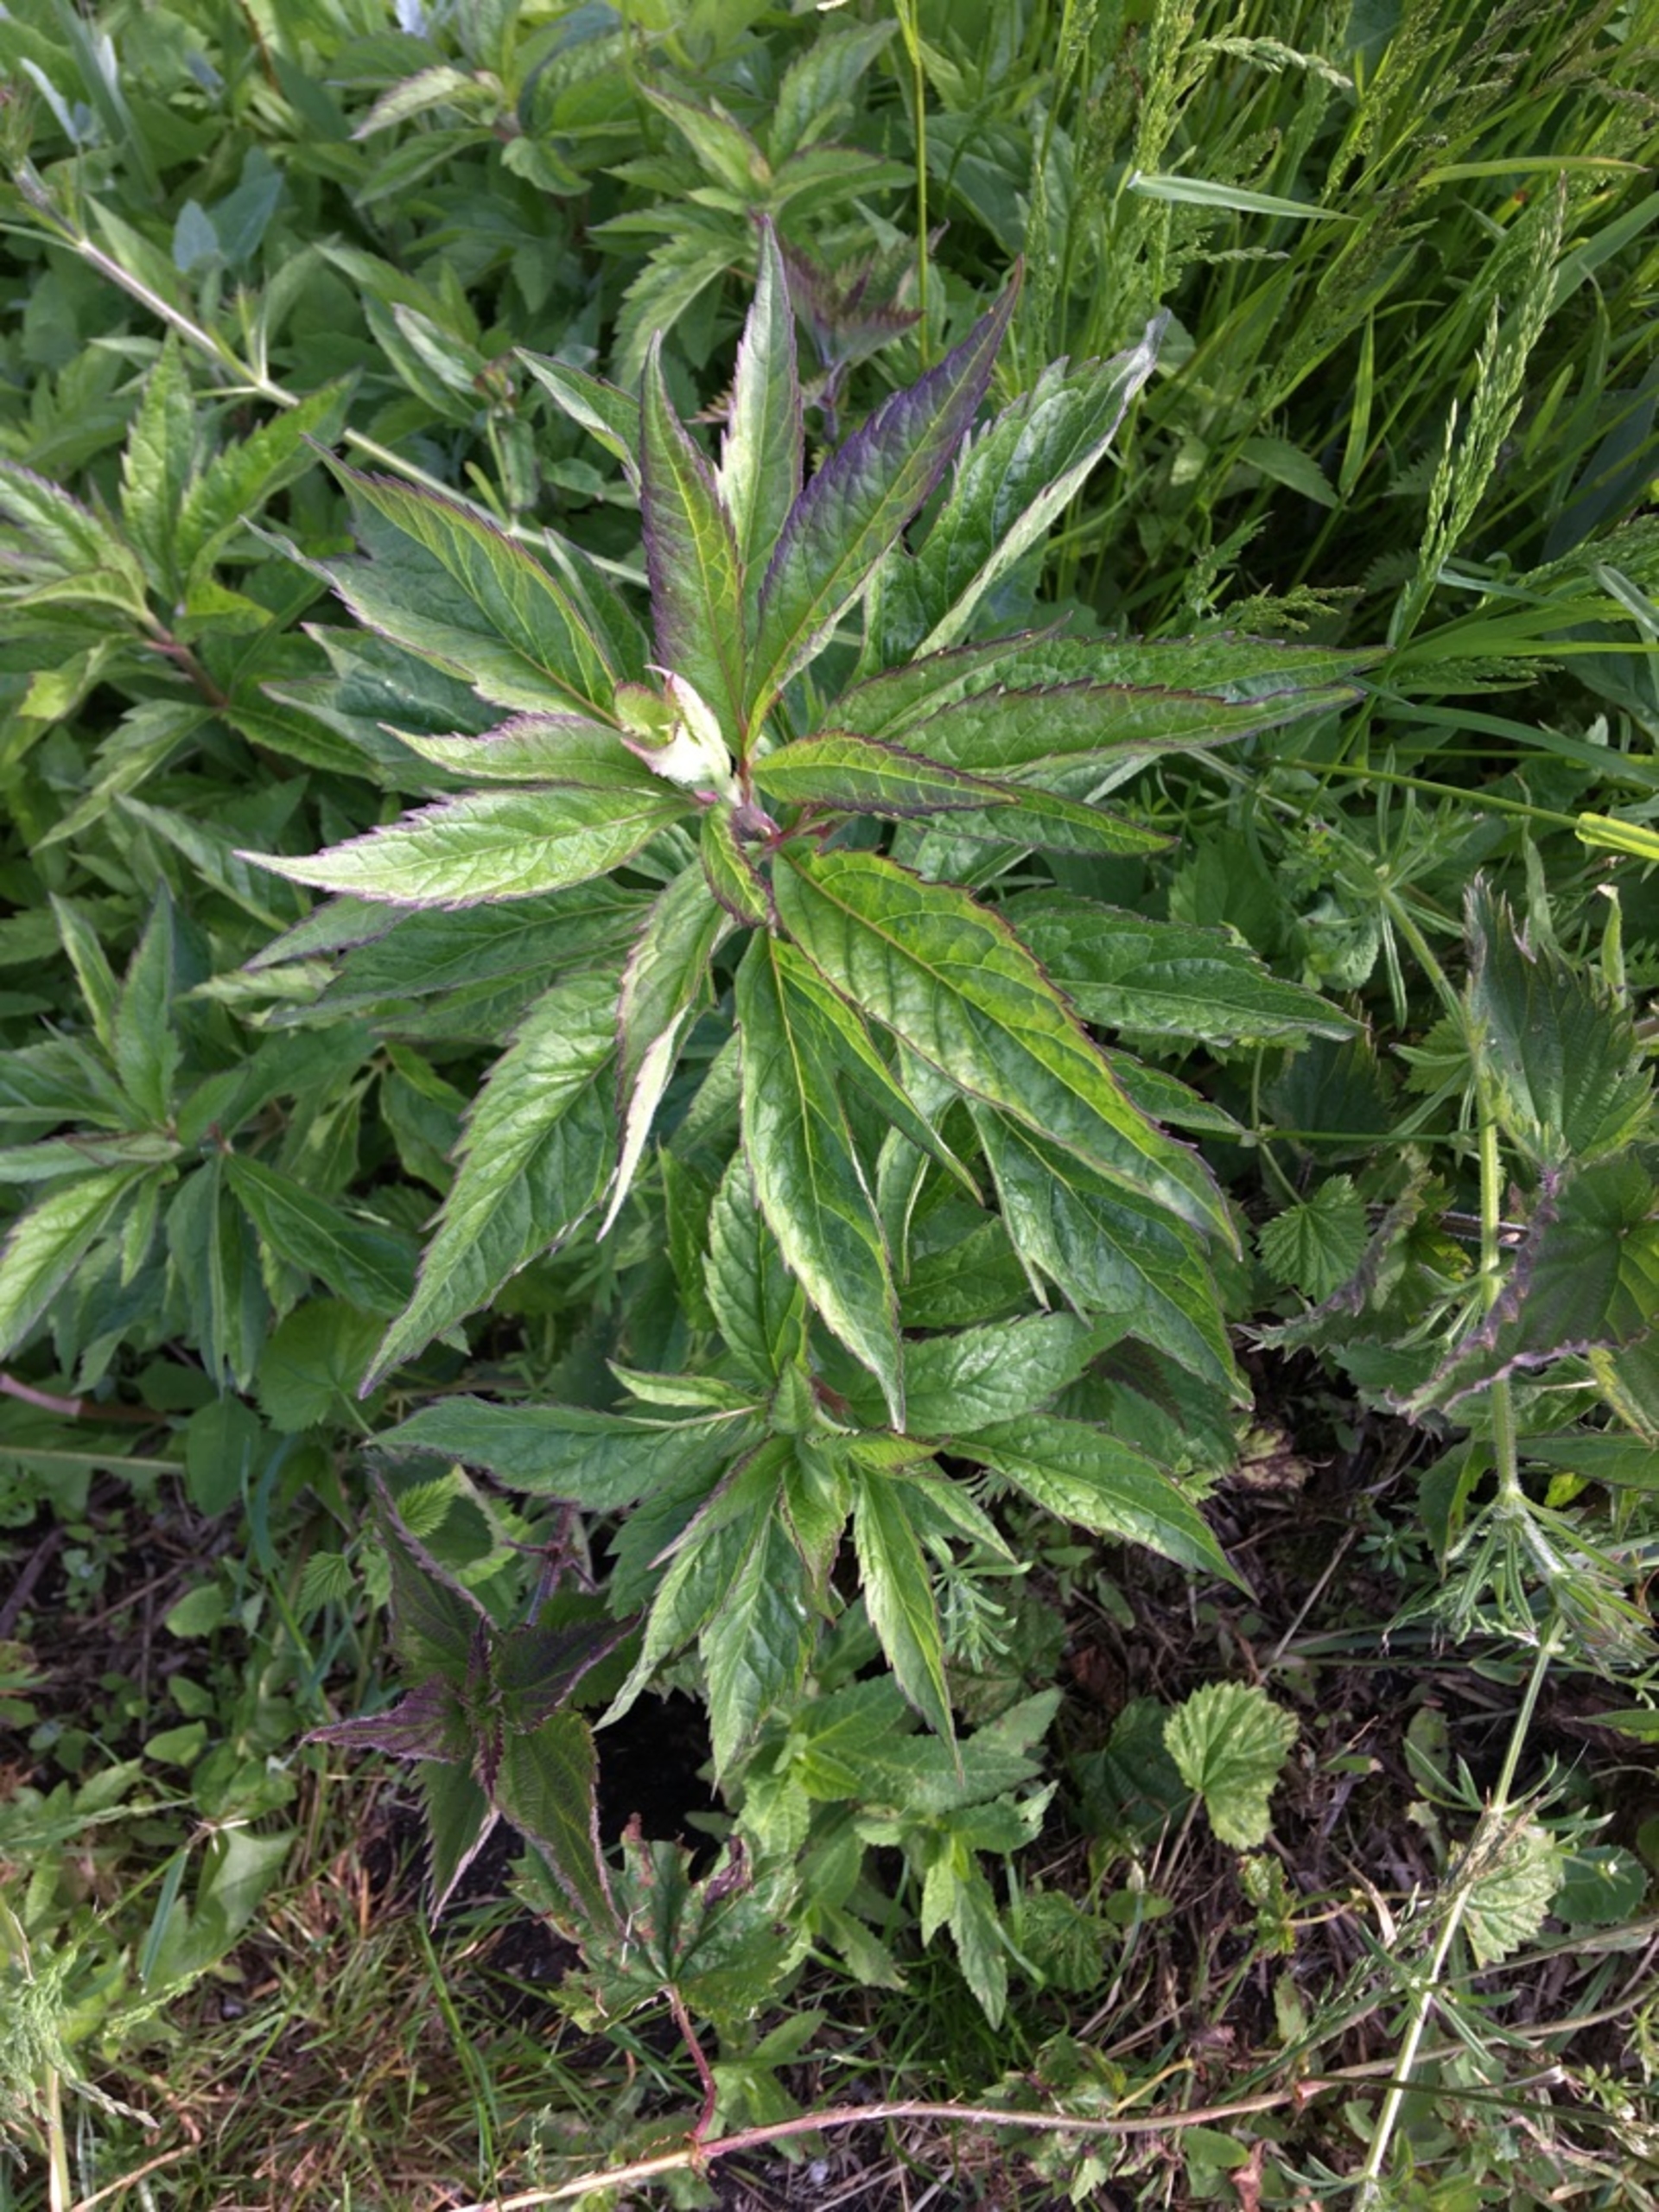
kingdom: Plantae
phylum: Tracheophyta
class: Magnoliopsida
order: Asterales
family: Asteraceae
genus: Eupatorium
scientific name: Eupatorium cannabinum
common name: Hjortetrøst
